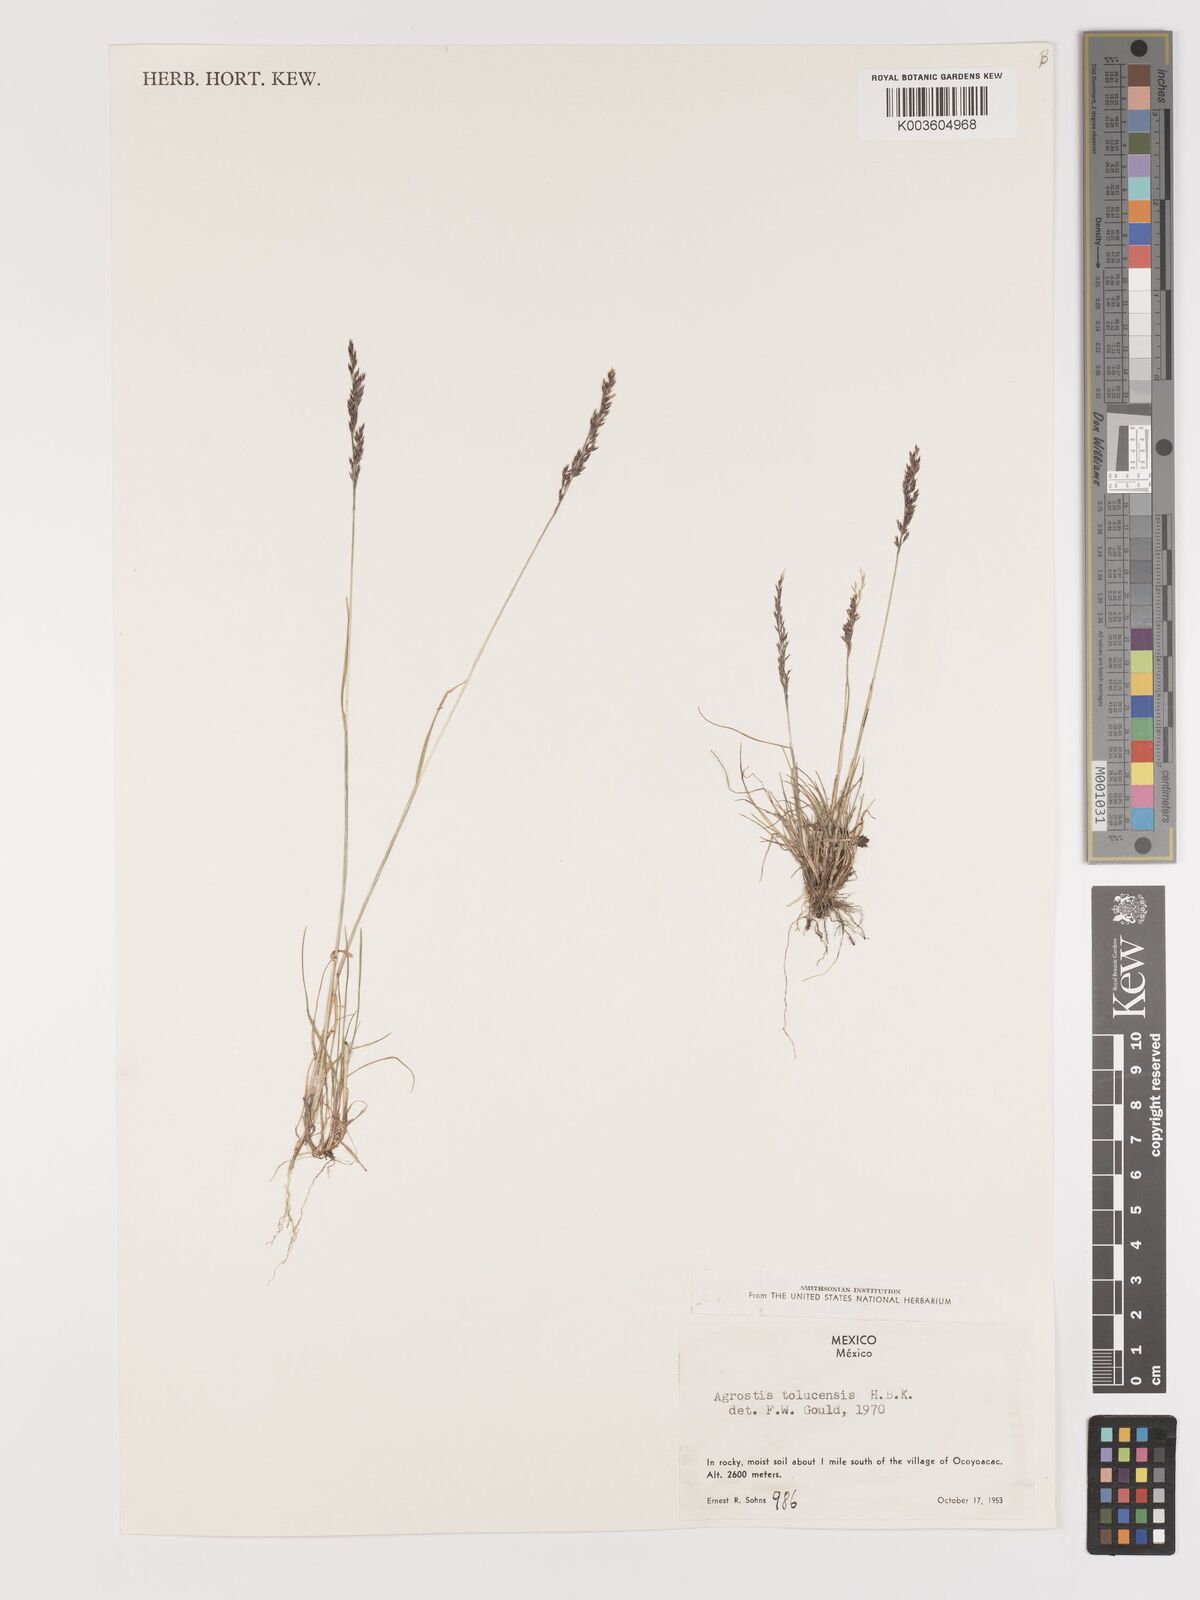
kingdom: Plantae
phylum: Tracheophyta
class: Liliopsida
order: Poales
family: Poaceae
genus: Agrostis
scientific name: Agrostis tolucensis
